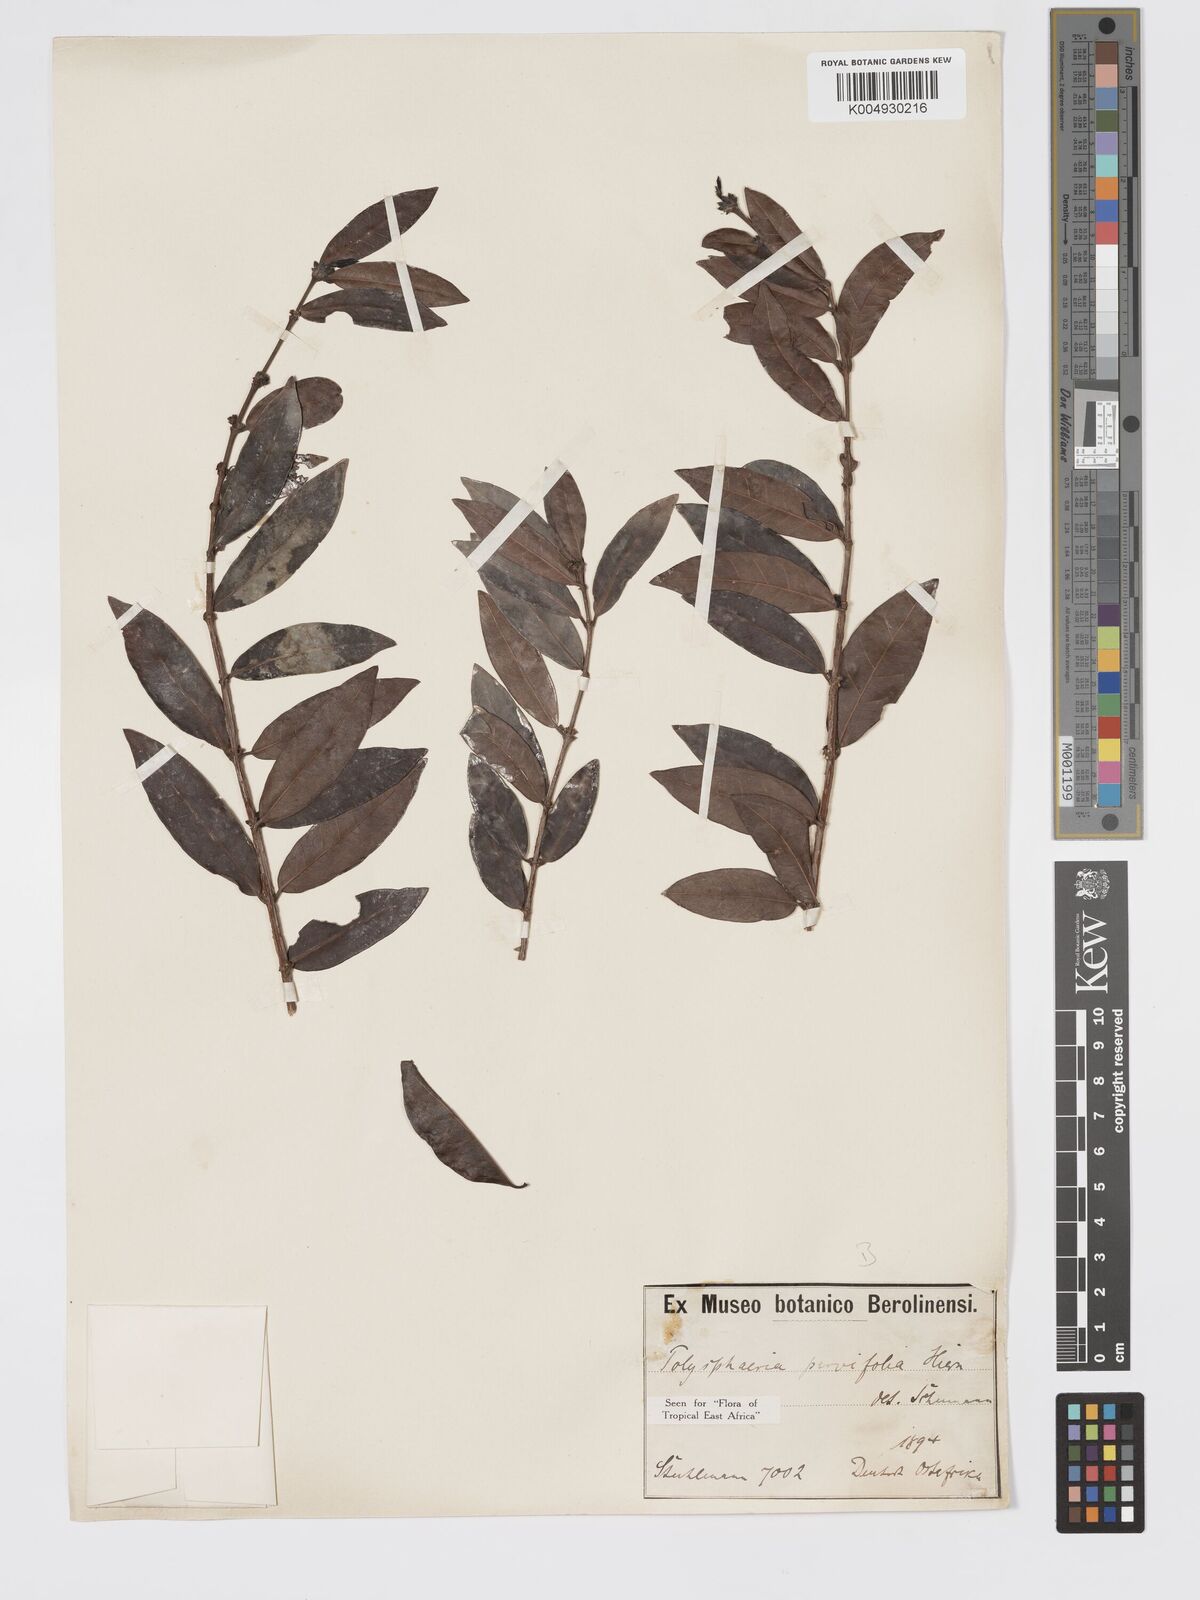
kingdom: Plantae
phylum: Tracheophyta
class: Magnoliopsida
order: Gentianales
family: Rubiaceae
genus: Polysphaeria
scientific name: Polysphaeria parvifolia
